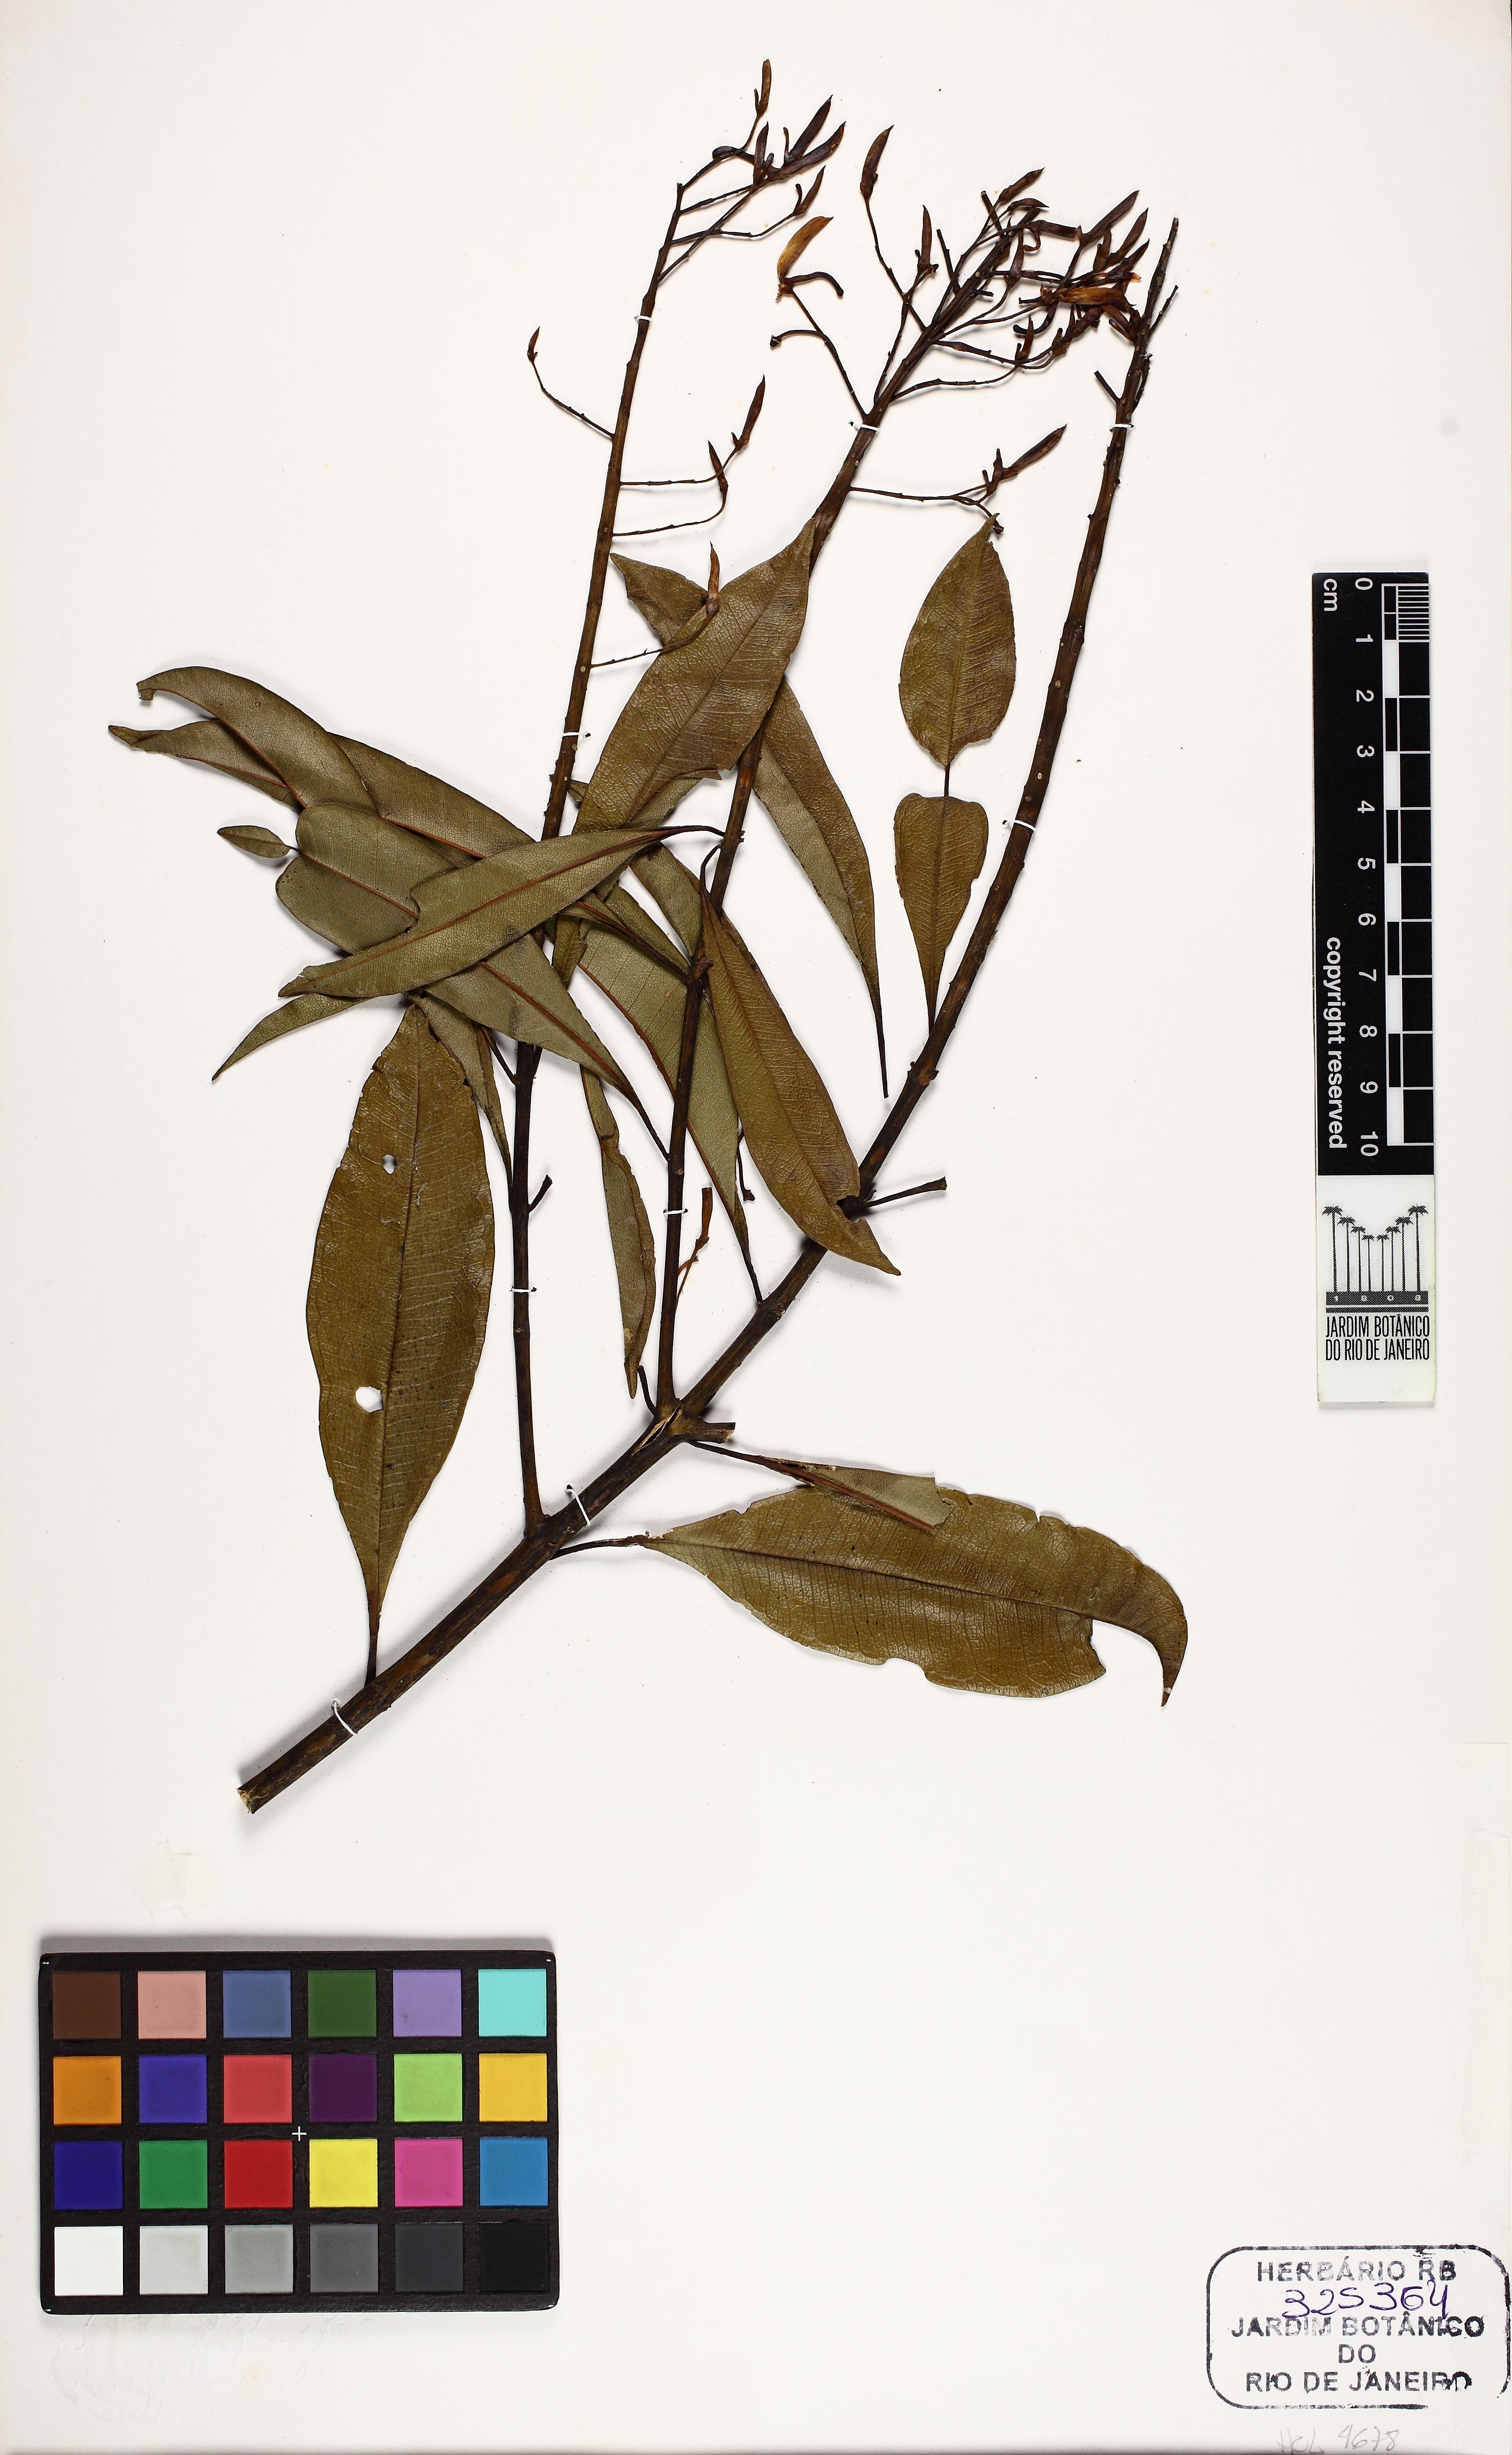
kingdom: Plantae
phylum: Tracheophyta
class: Magnoliopsida
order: Myrtales
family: Vochysiaceae
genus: Vochysia
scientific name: Vochysia bifalcata
